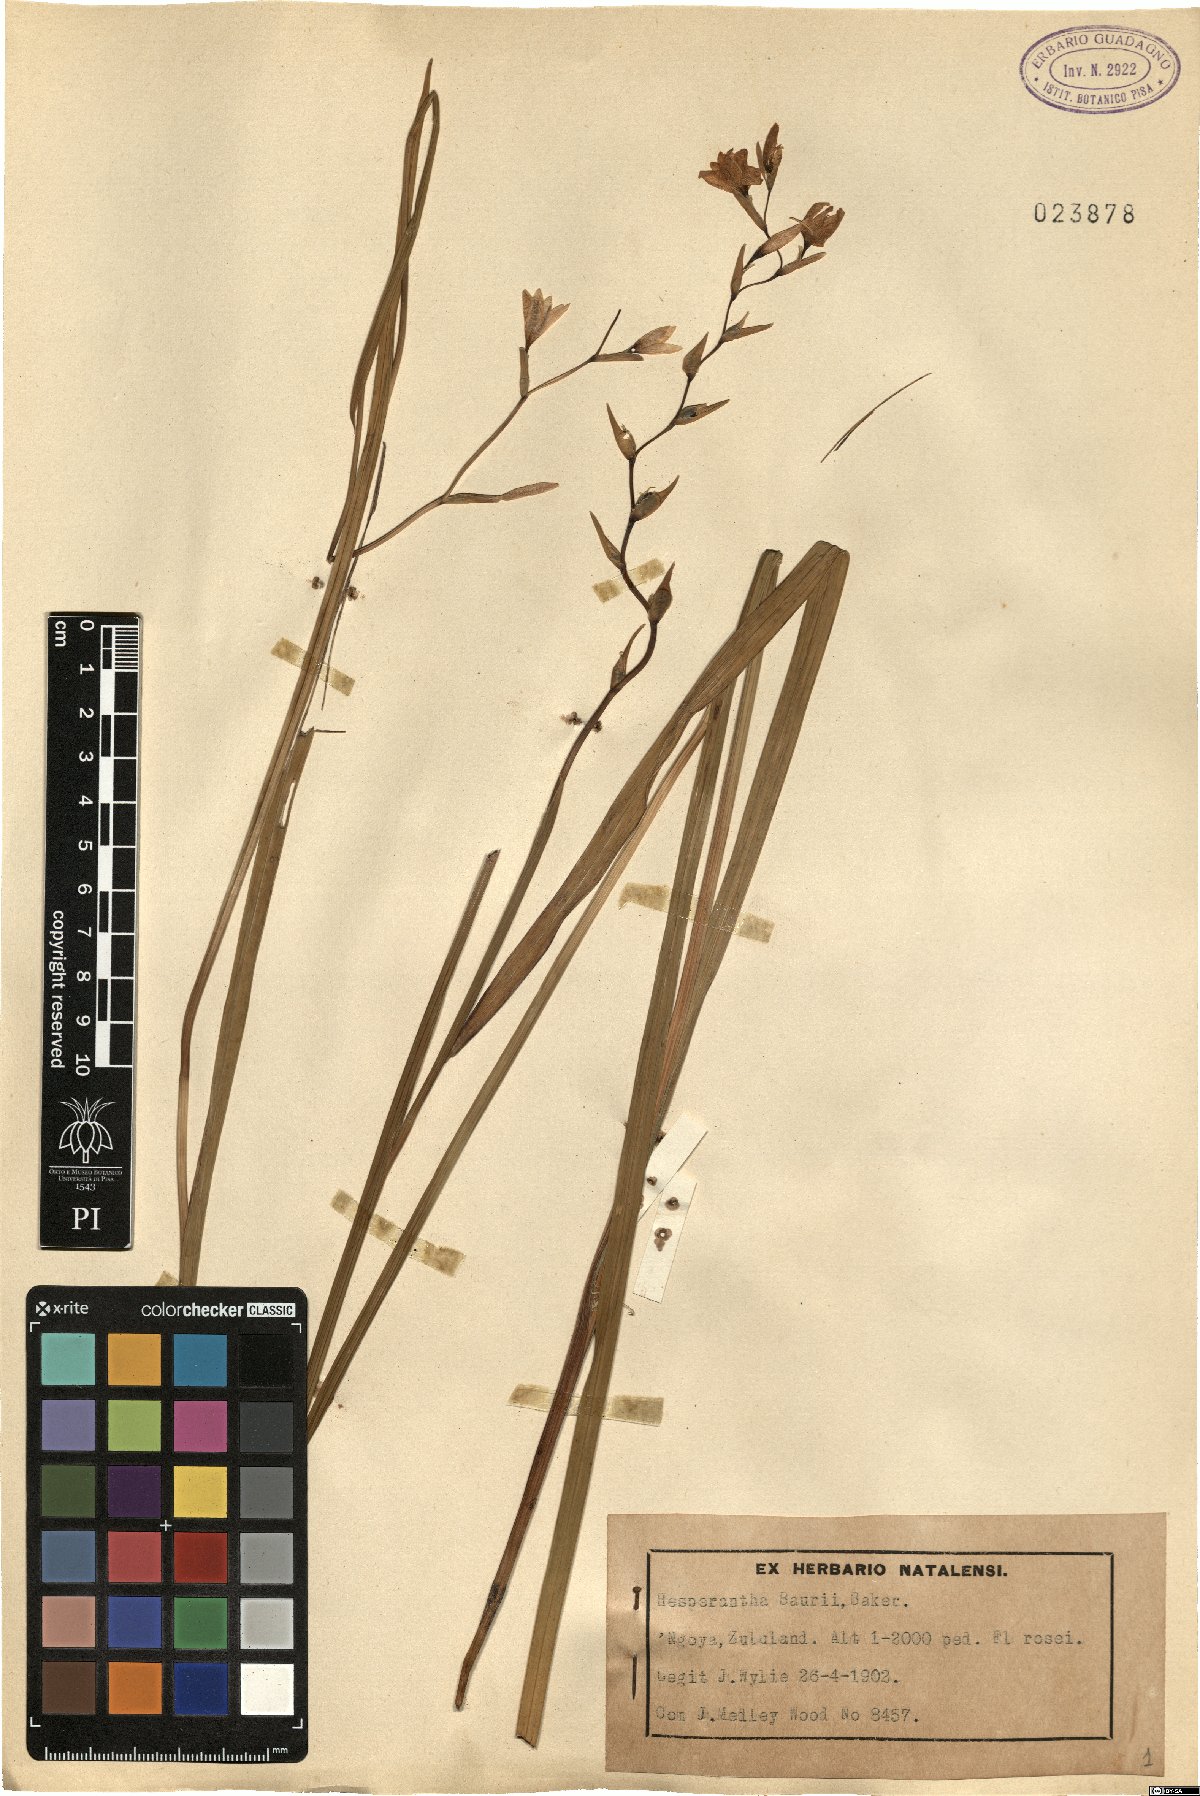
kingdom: Plantae
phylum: Tracheophyta
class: Liliopsida
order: Asparagales
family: Iridaceae
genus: Hesperantha
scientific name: Hesperantha baurii
